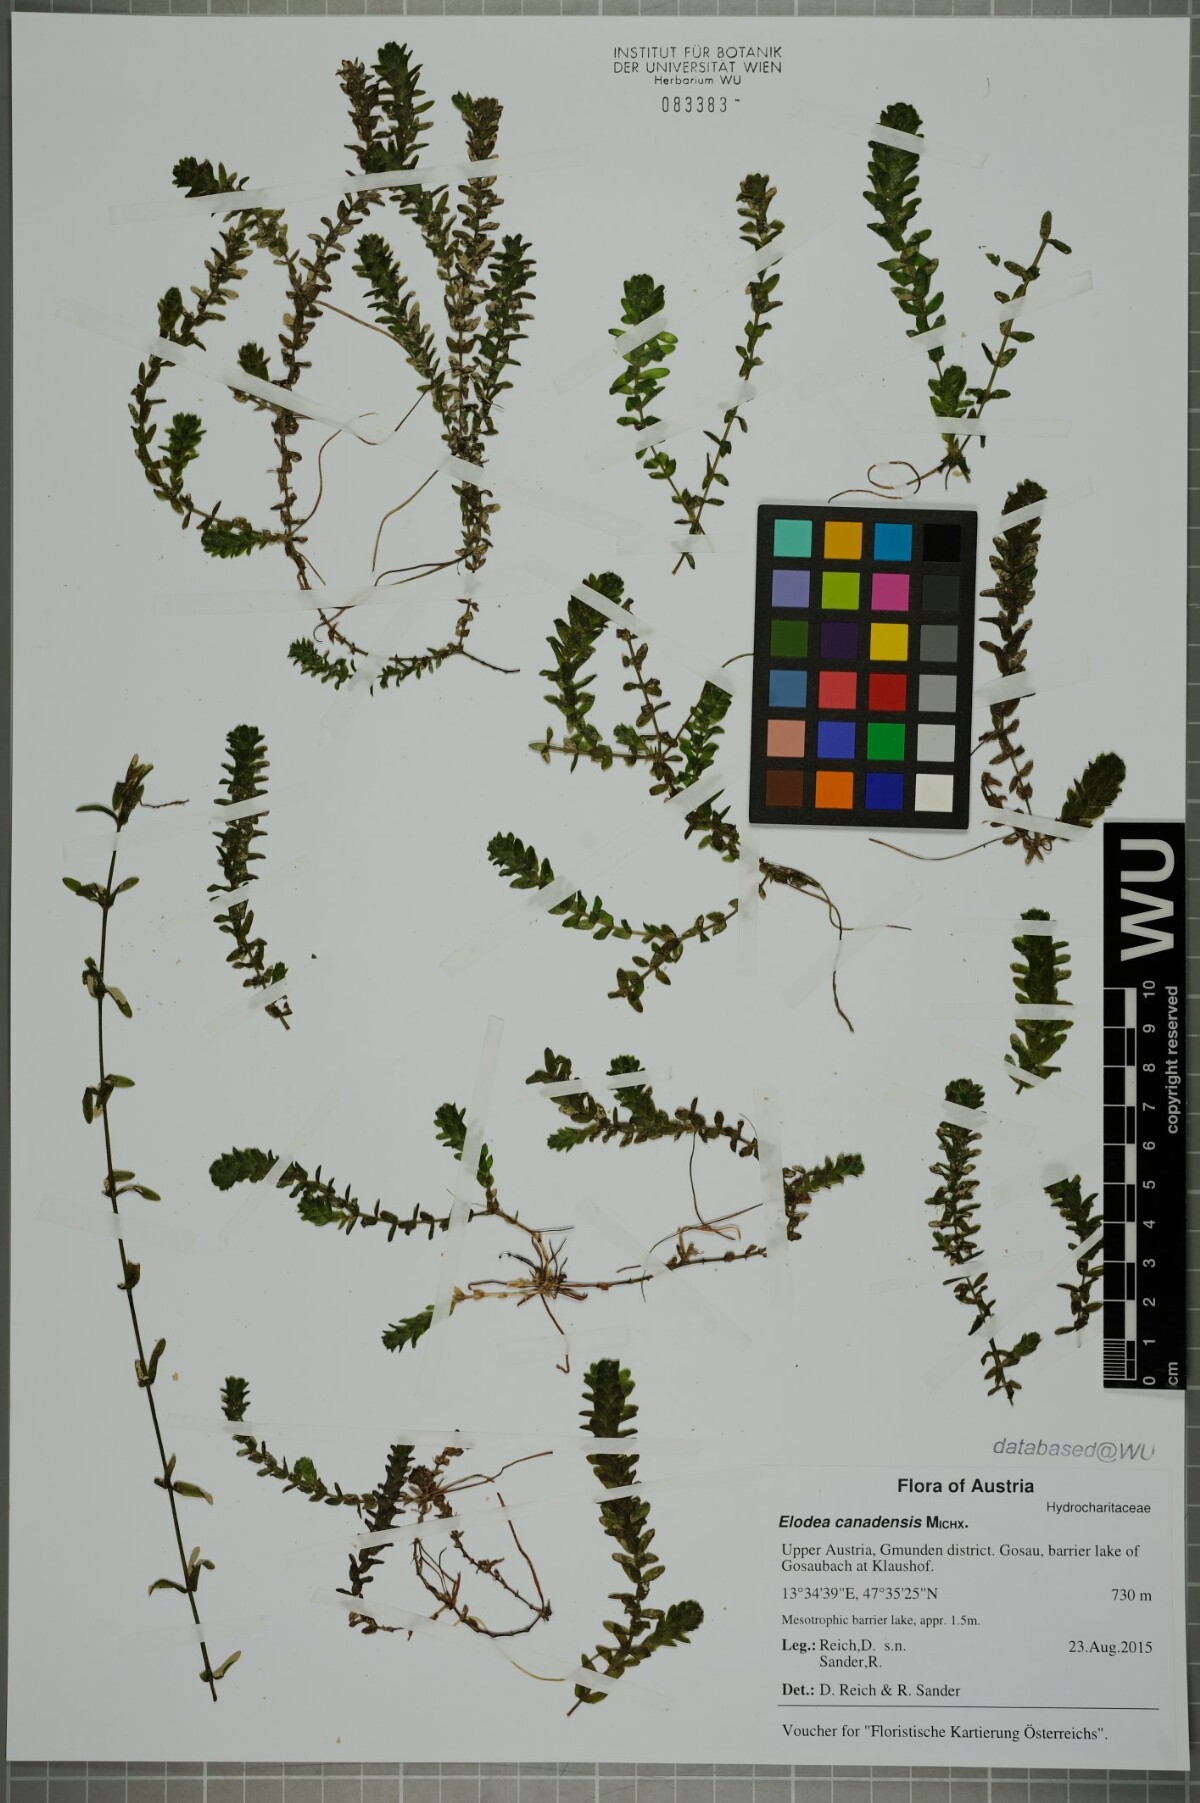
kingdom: Plantae
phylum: Tracheophyta
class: Liliopsida
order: Alismatales
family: Hydrocharitaceae
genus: Elodea
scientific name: Elodea canadensis
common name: Canadian waterweed
